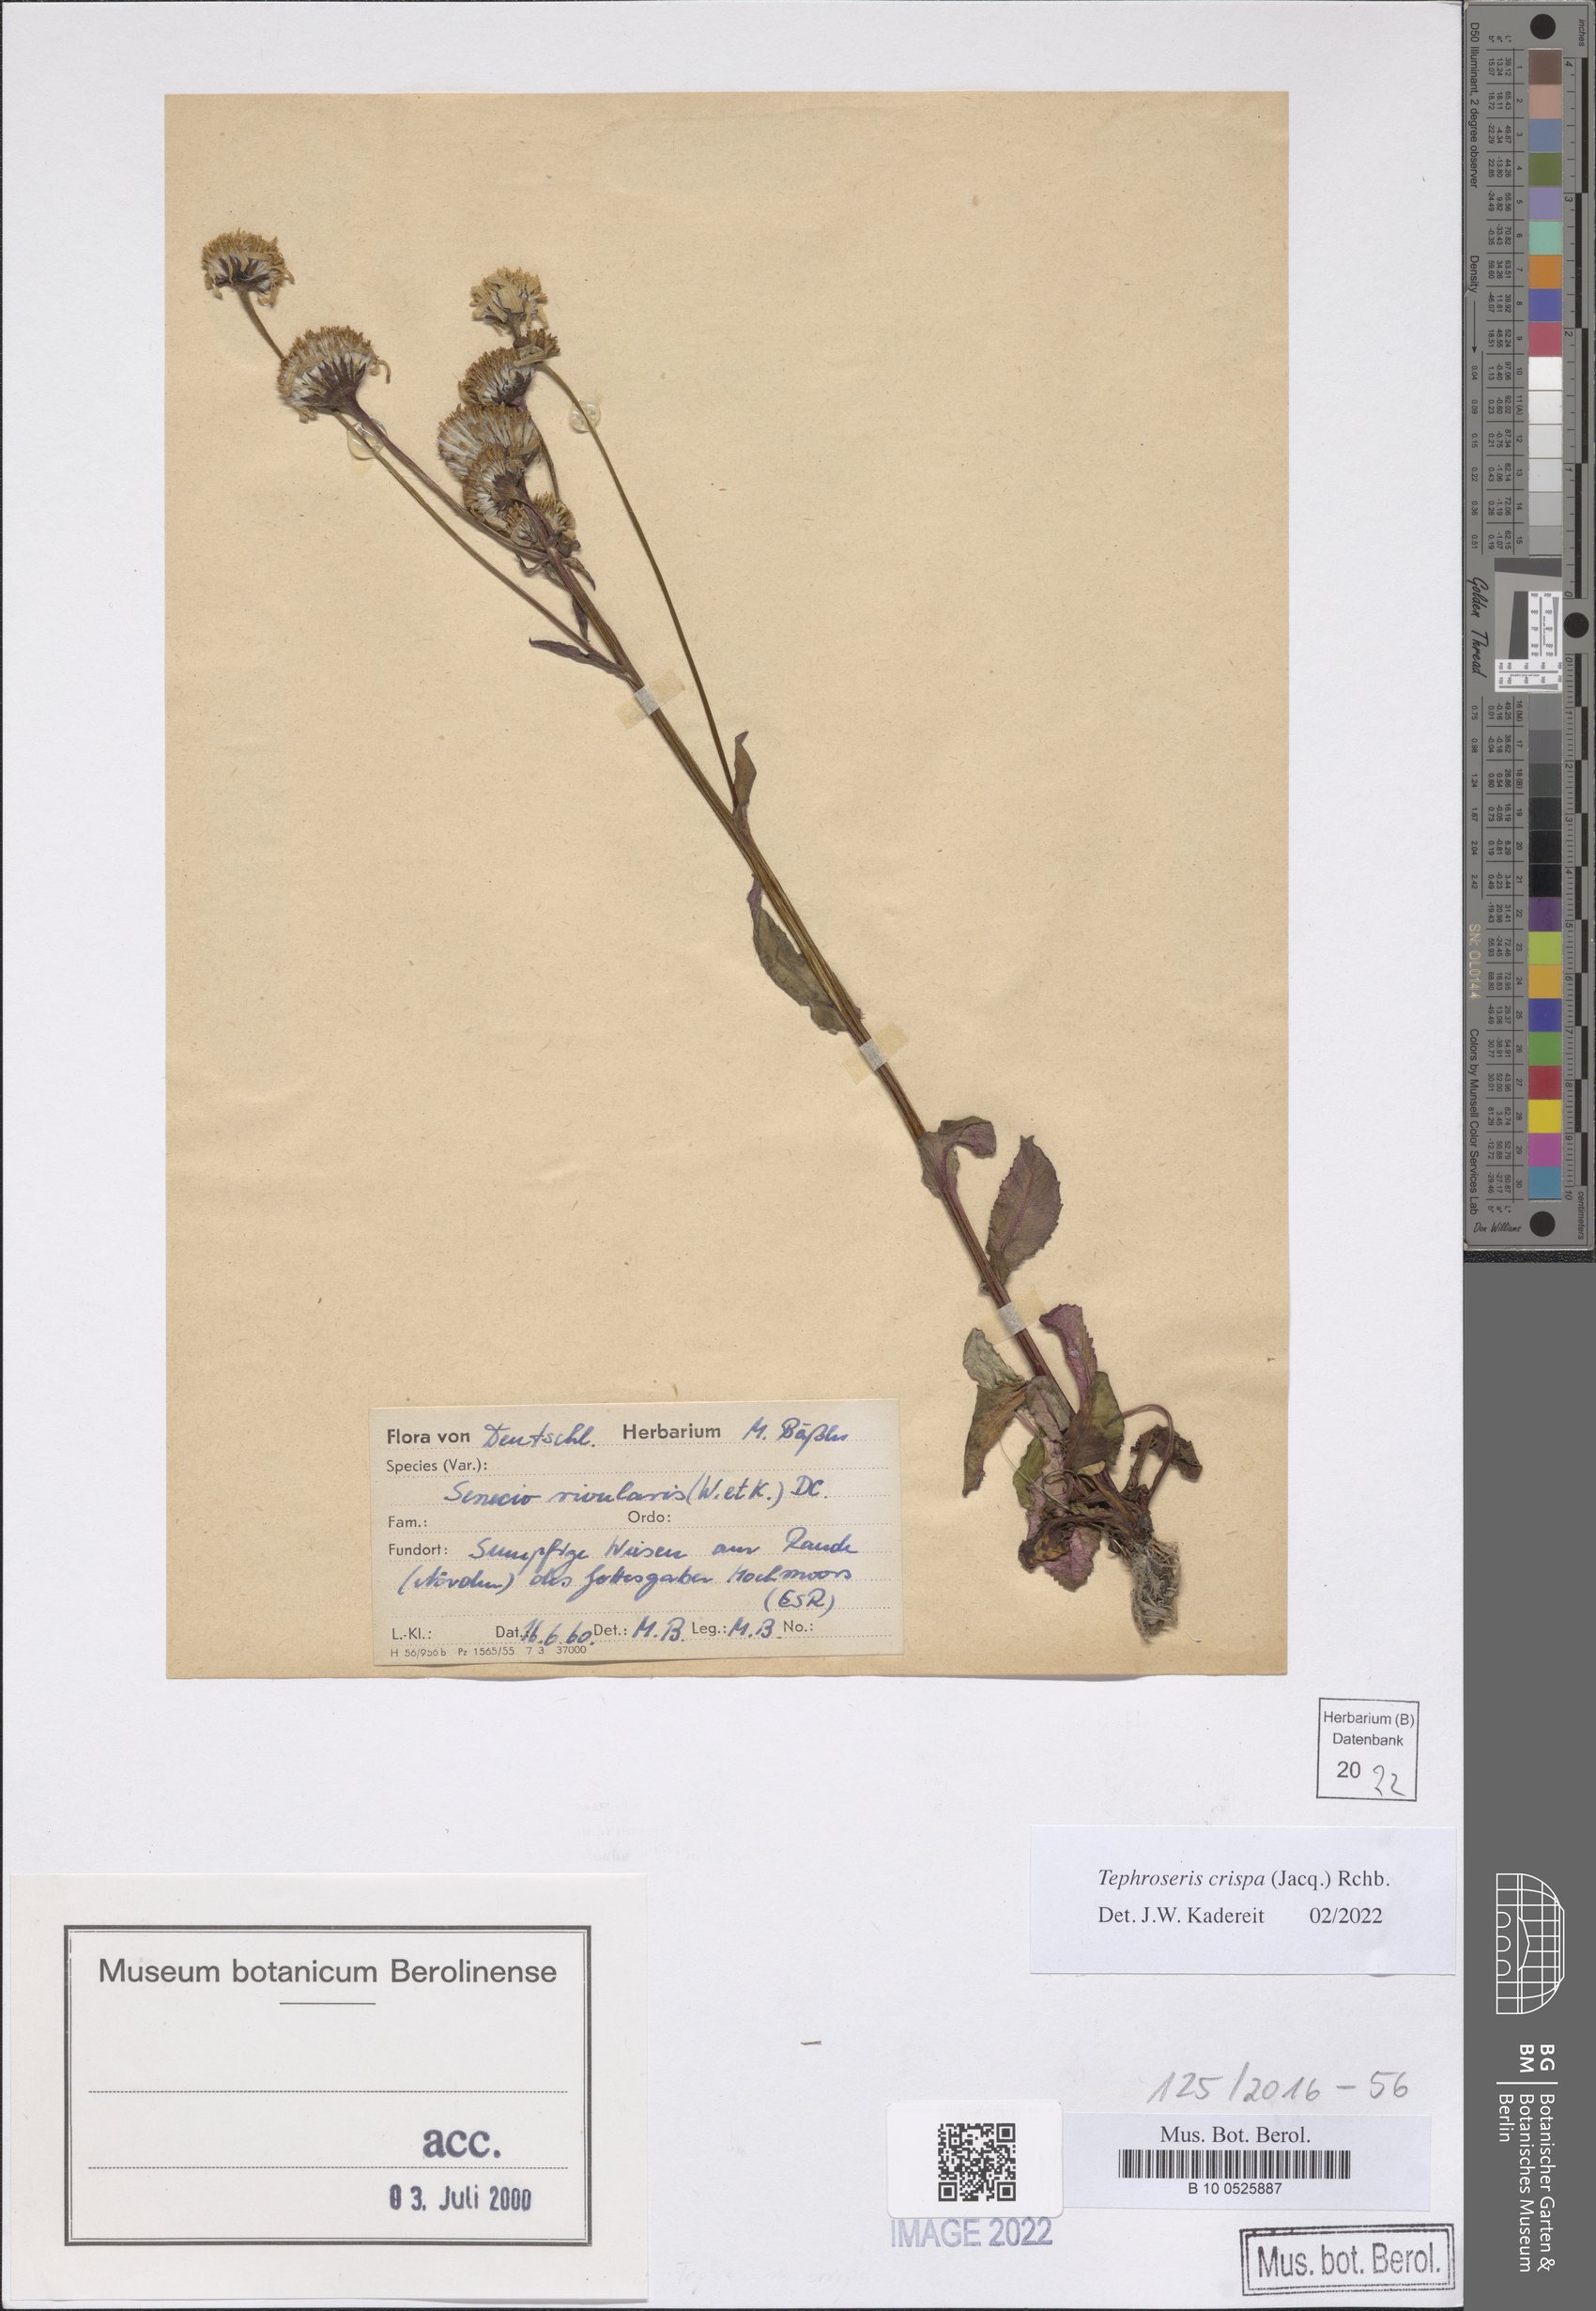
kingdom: Plantae
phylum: Tracheophyta
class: Magnoliopsida
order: Asterales
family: Asteraceae
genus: Tephroseris
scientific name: Tephroseris crispa
